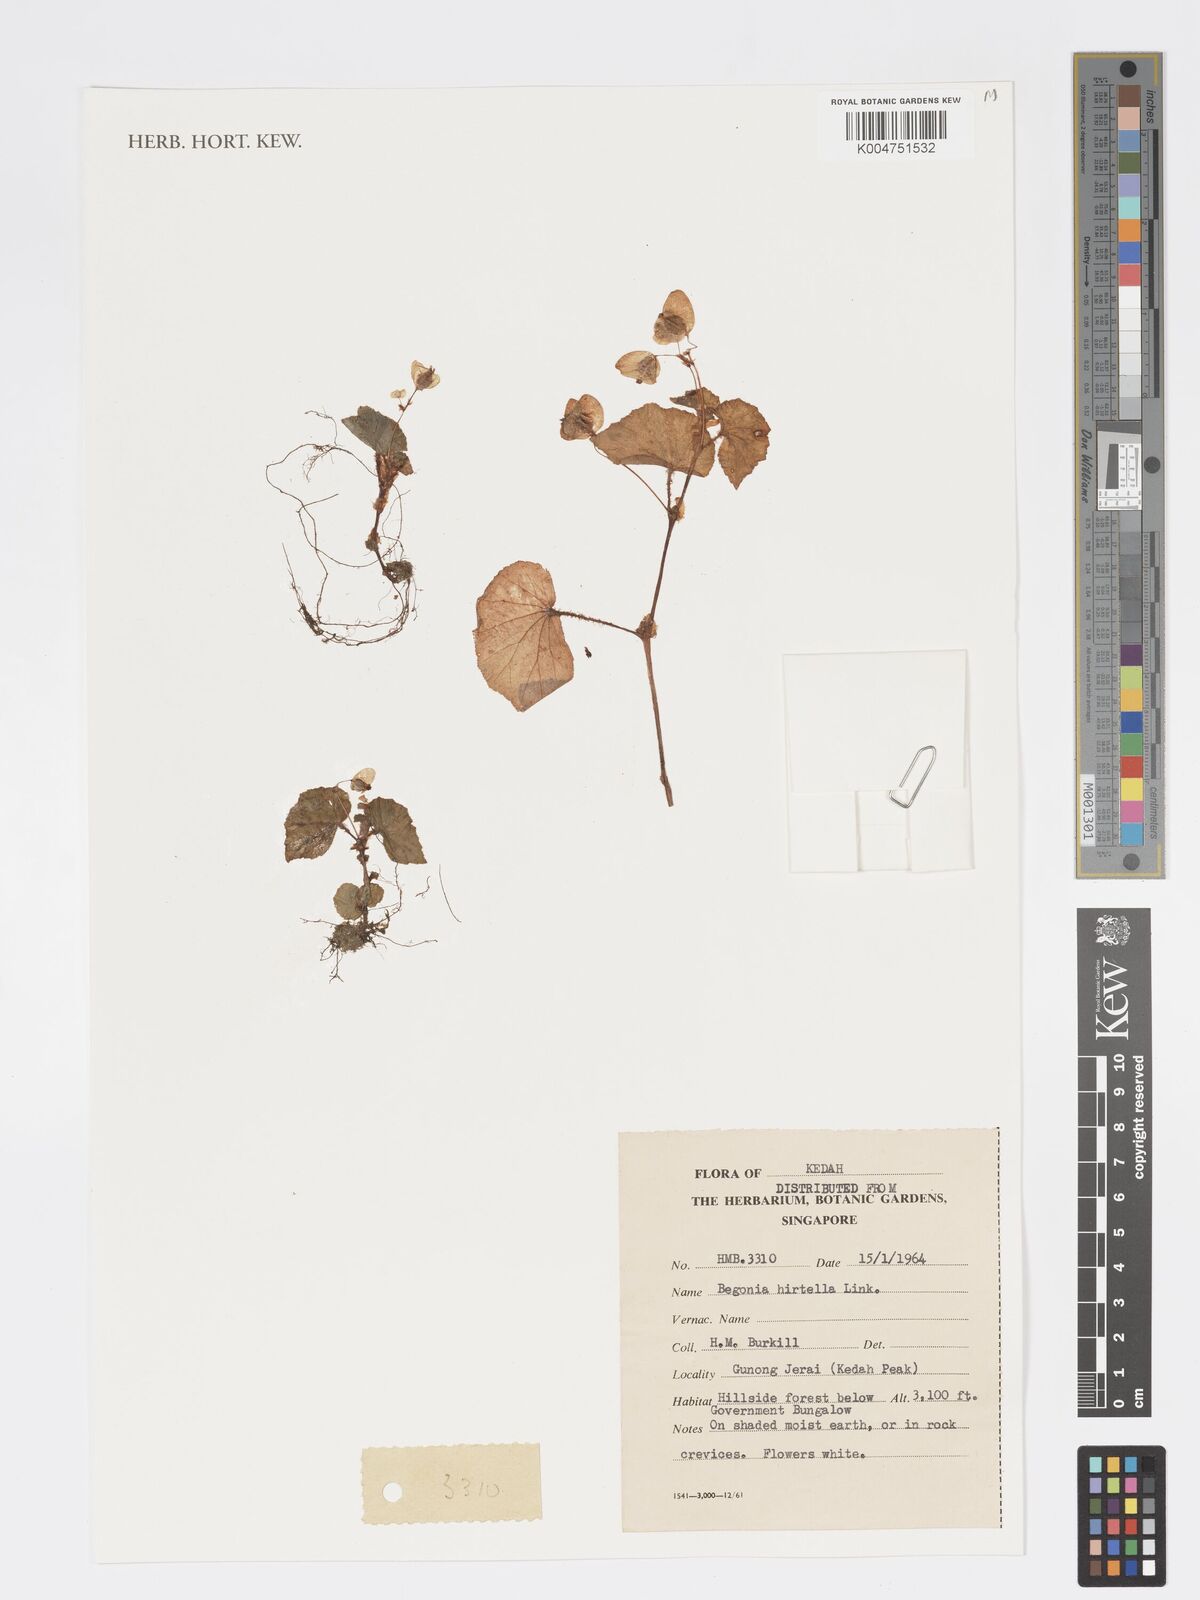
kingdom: Plantae
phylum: Tracheophyta
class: Magnoliopsida
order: Cucurbitales
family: Begoniaceae
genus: Begonia
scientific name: Begonia
